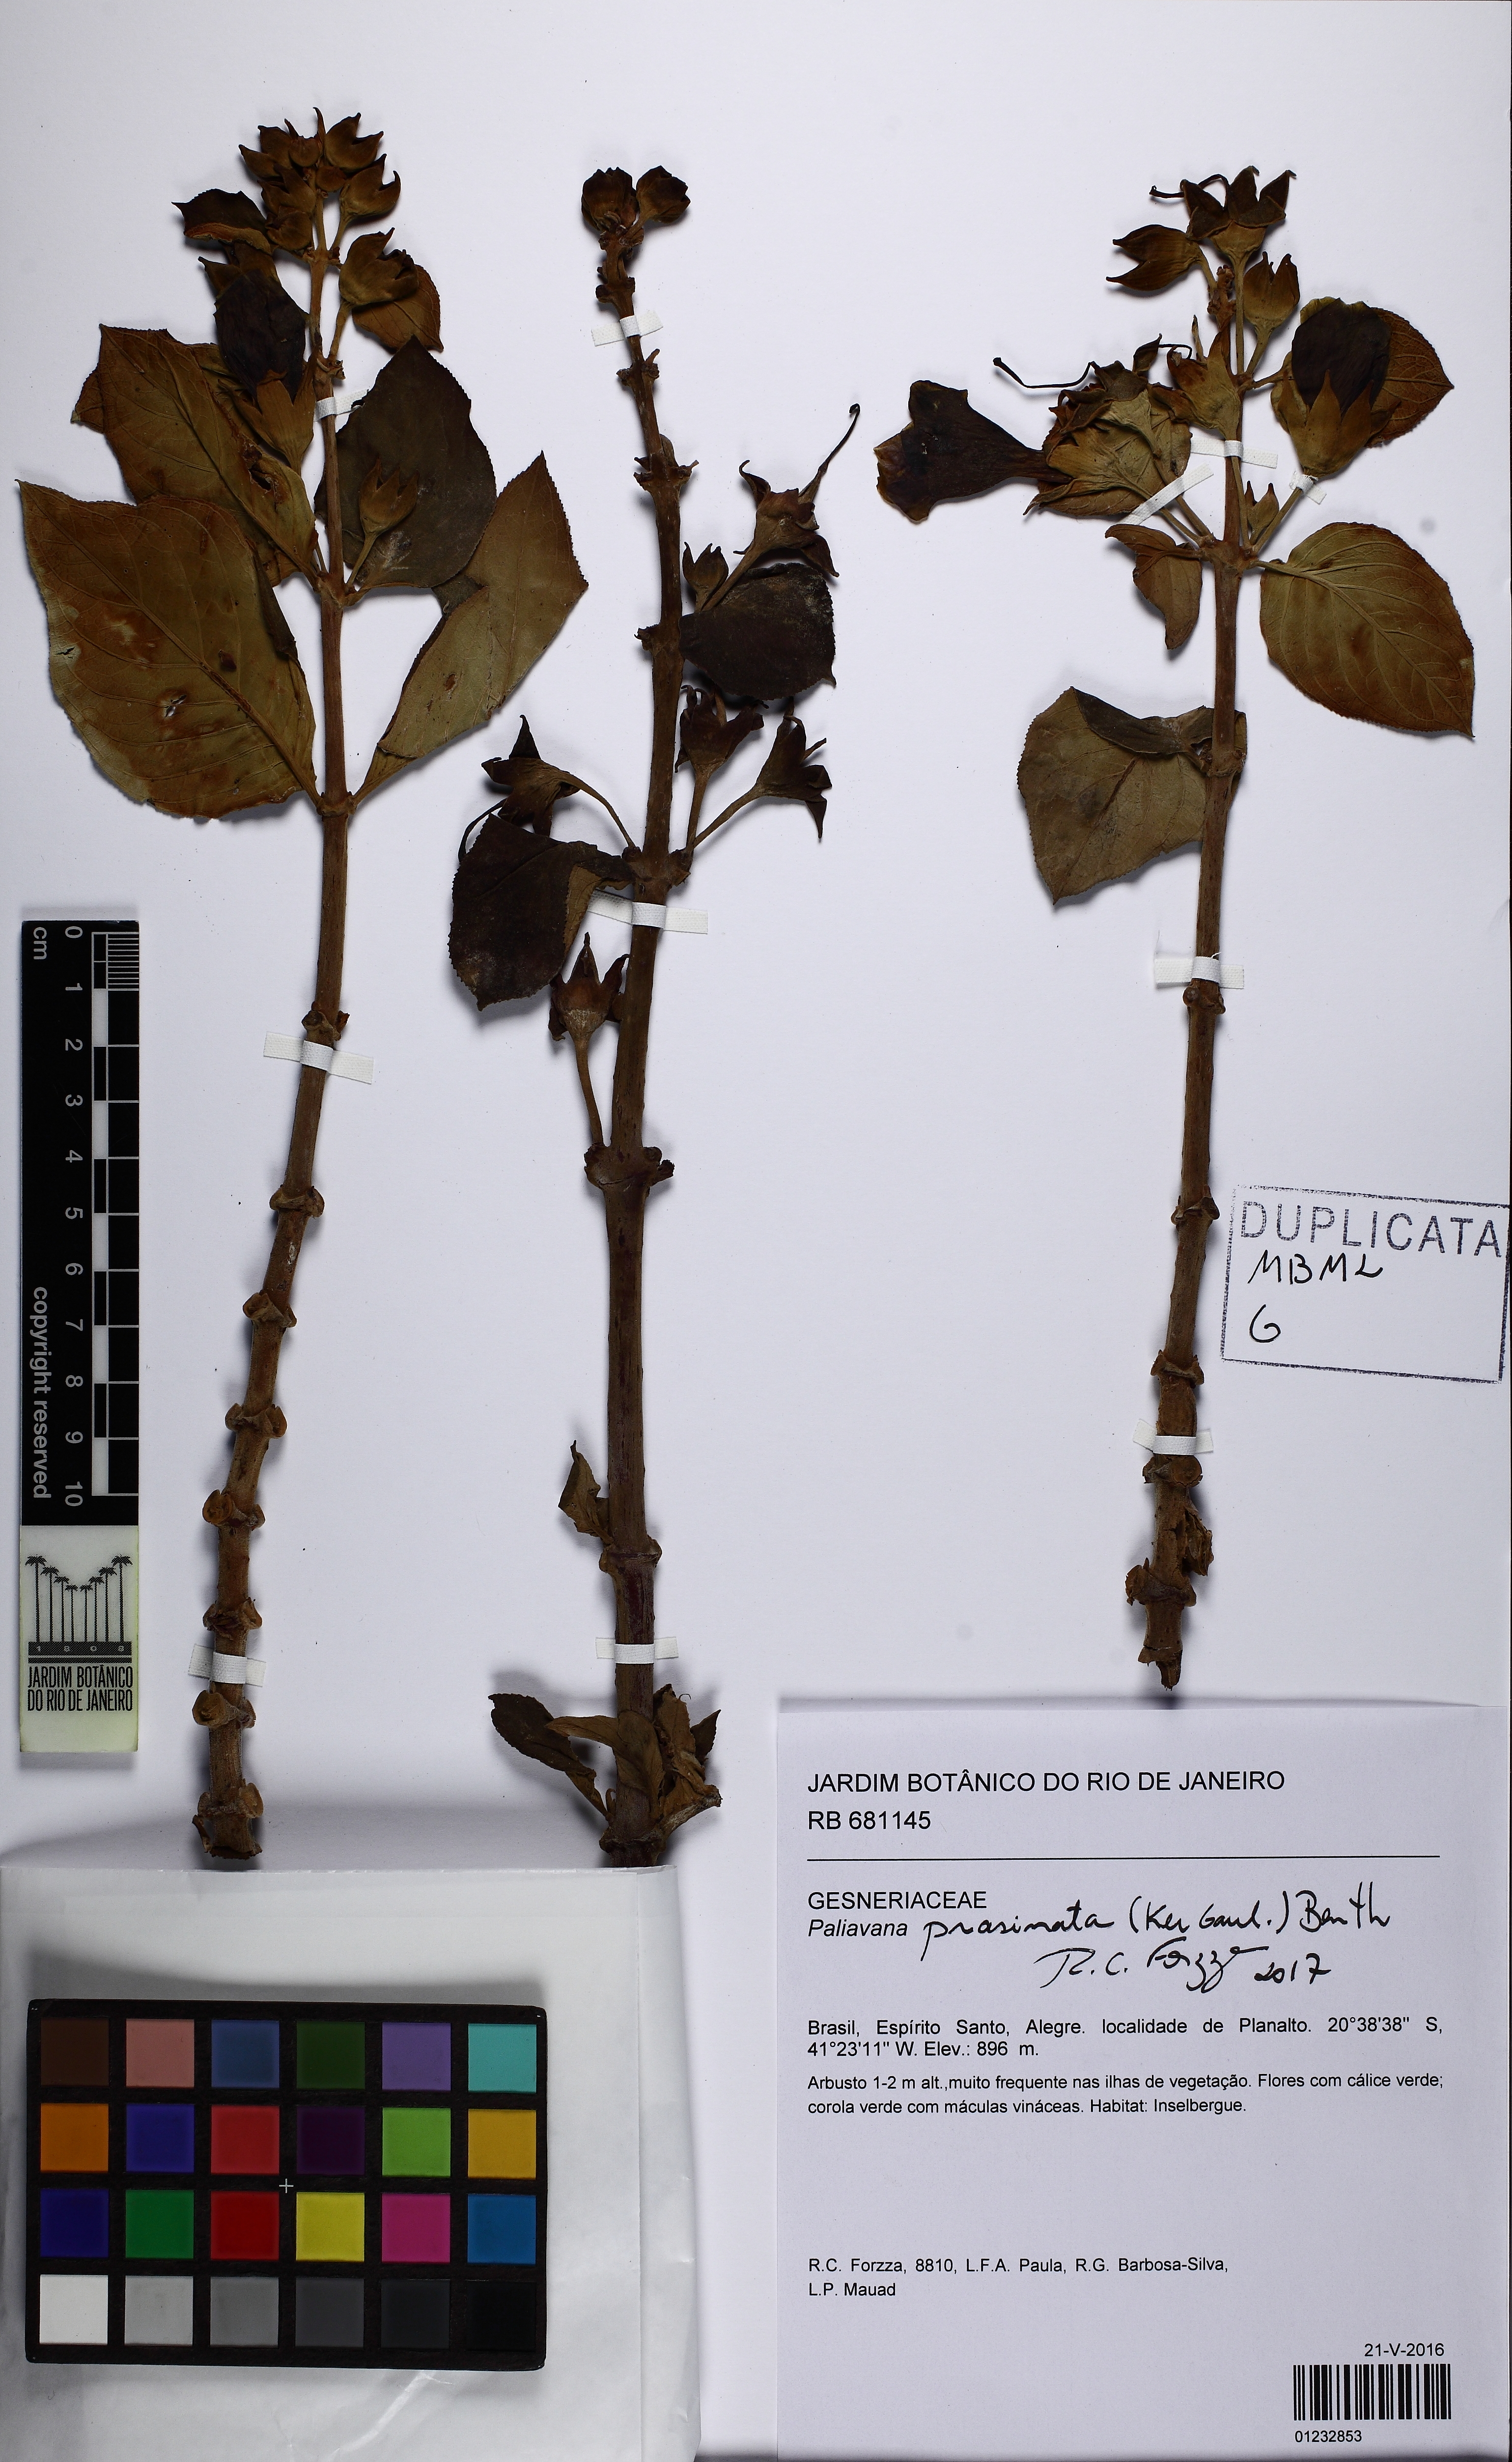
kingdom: Plantae
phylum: Tracheophyta
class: Magnoliopsida
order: Lamiales
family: Gesneriaceae
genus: Paliavana
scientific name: Paliavana prasinata
